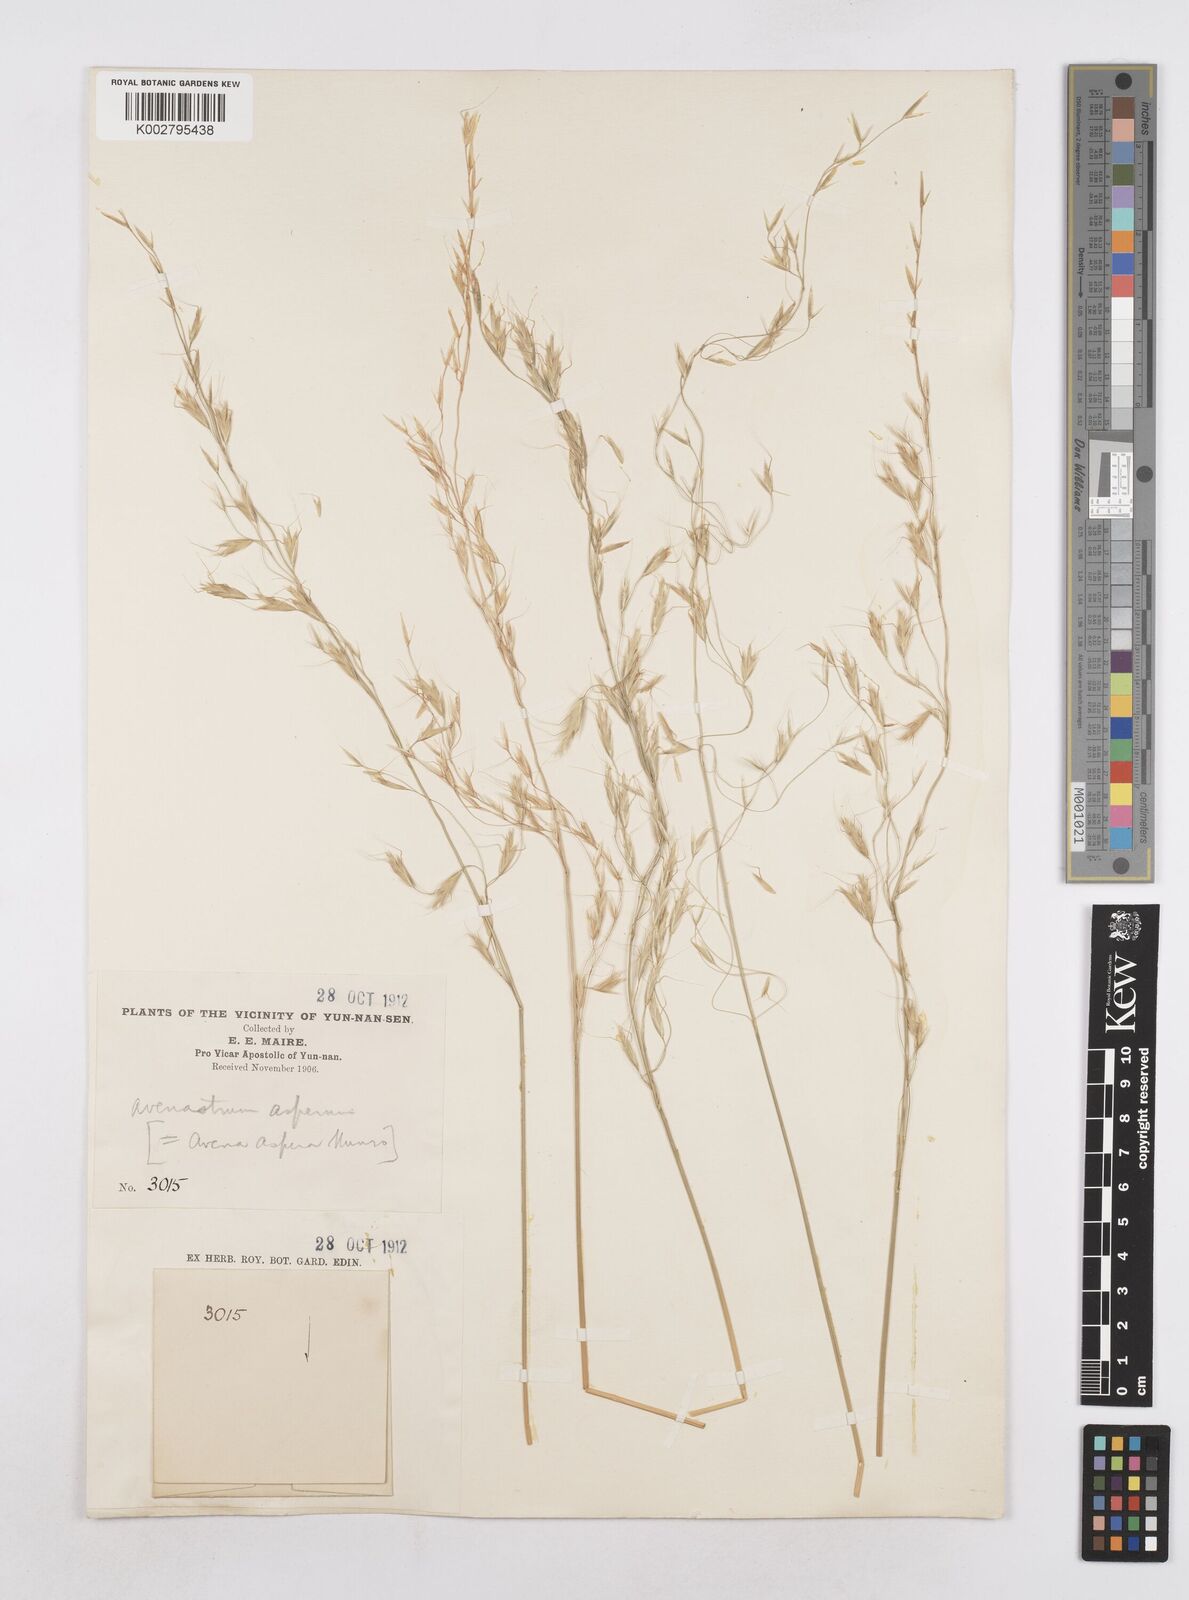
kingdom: Plantae
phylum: Tracheophyta
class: Liliopsida
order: Poales
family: Poaceae
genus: Trisetopsis
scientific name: Trisetopsis junghuhnii
